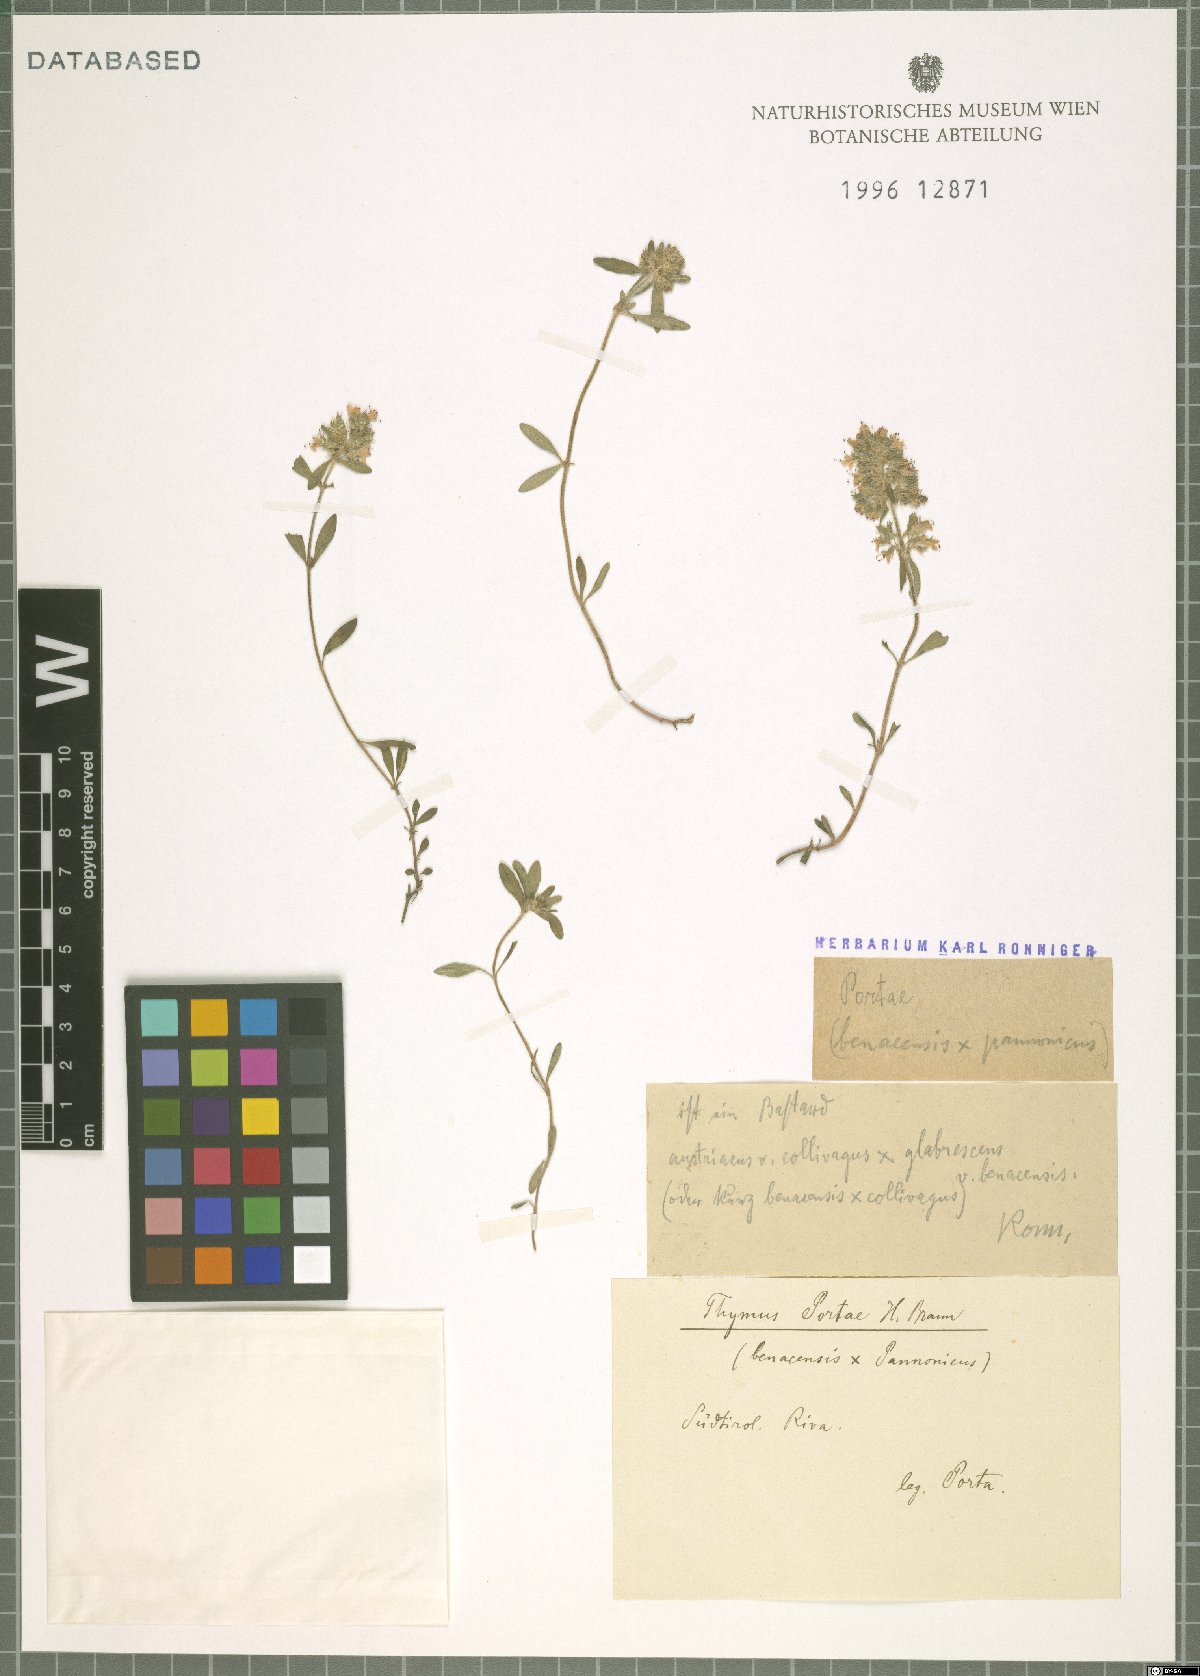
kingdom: Plantae
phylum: Tracheophyta
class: Magnoliopsida
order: Lamiales
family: Lamiaceae
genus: Thymus
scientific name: Thymus
